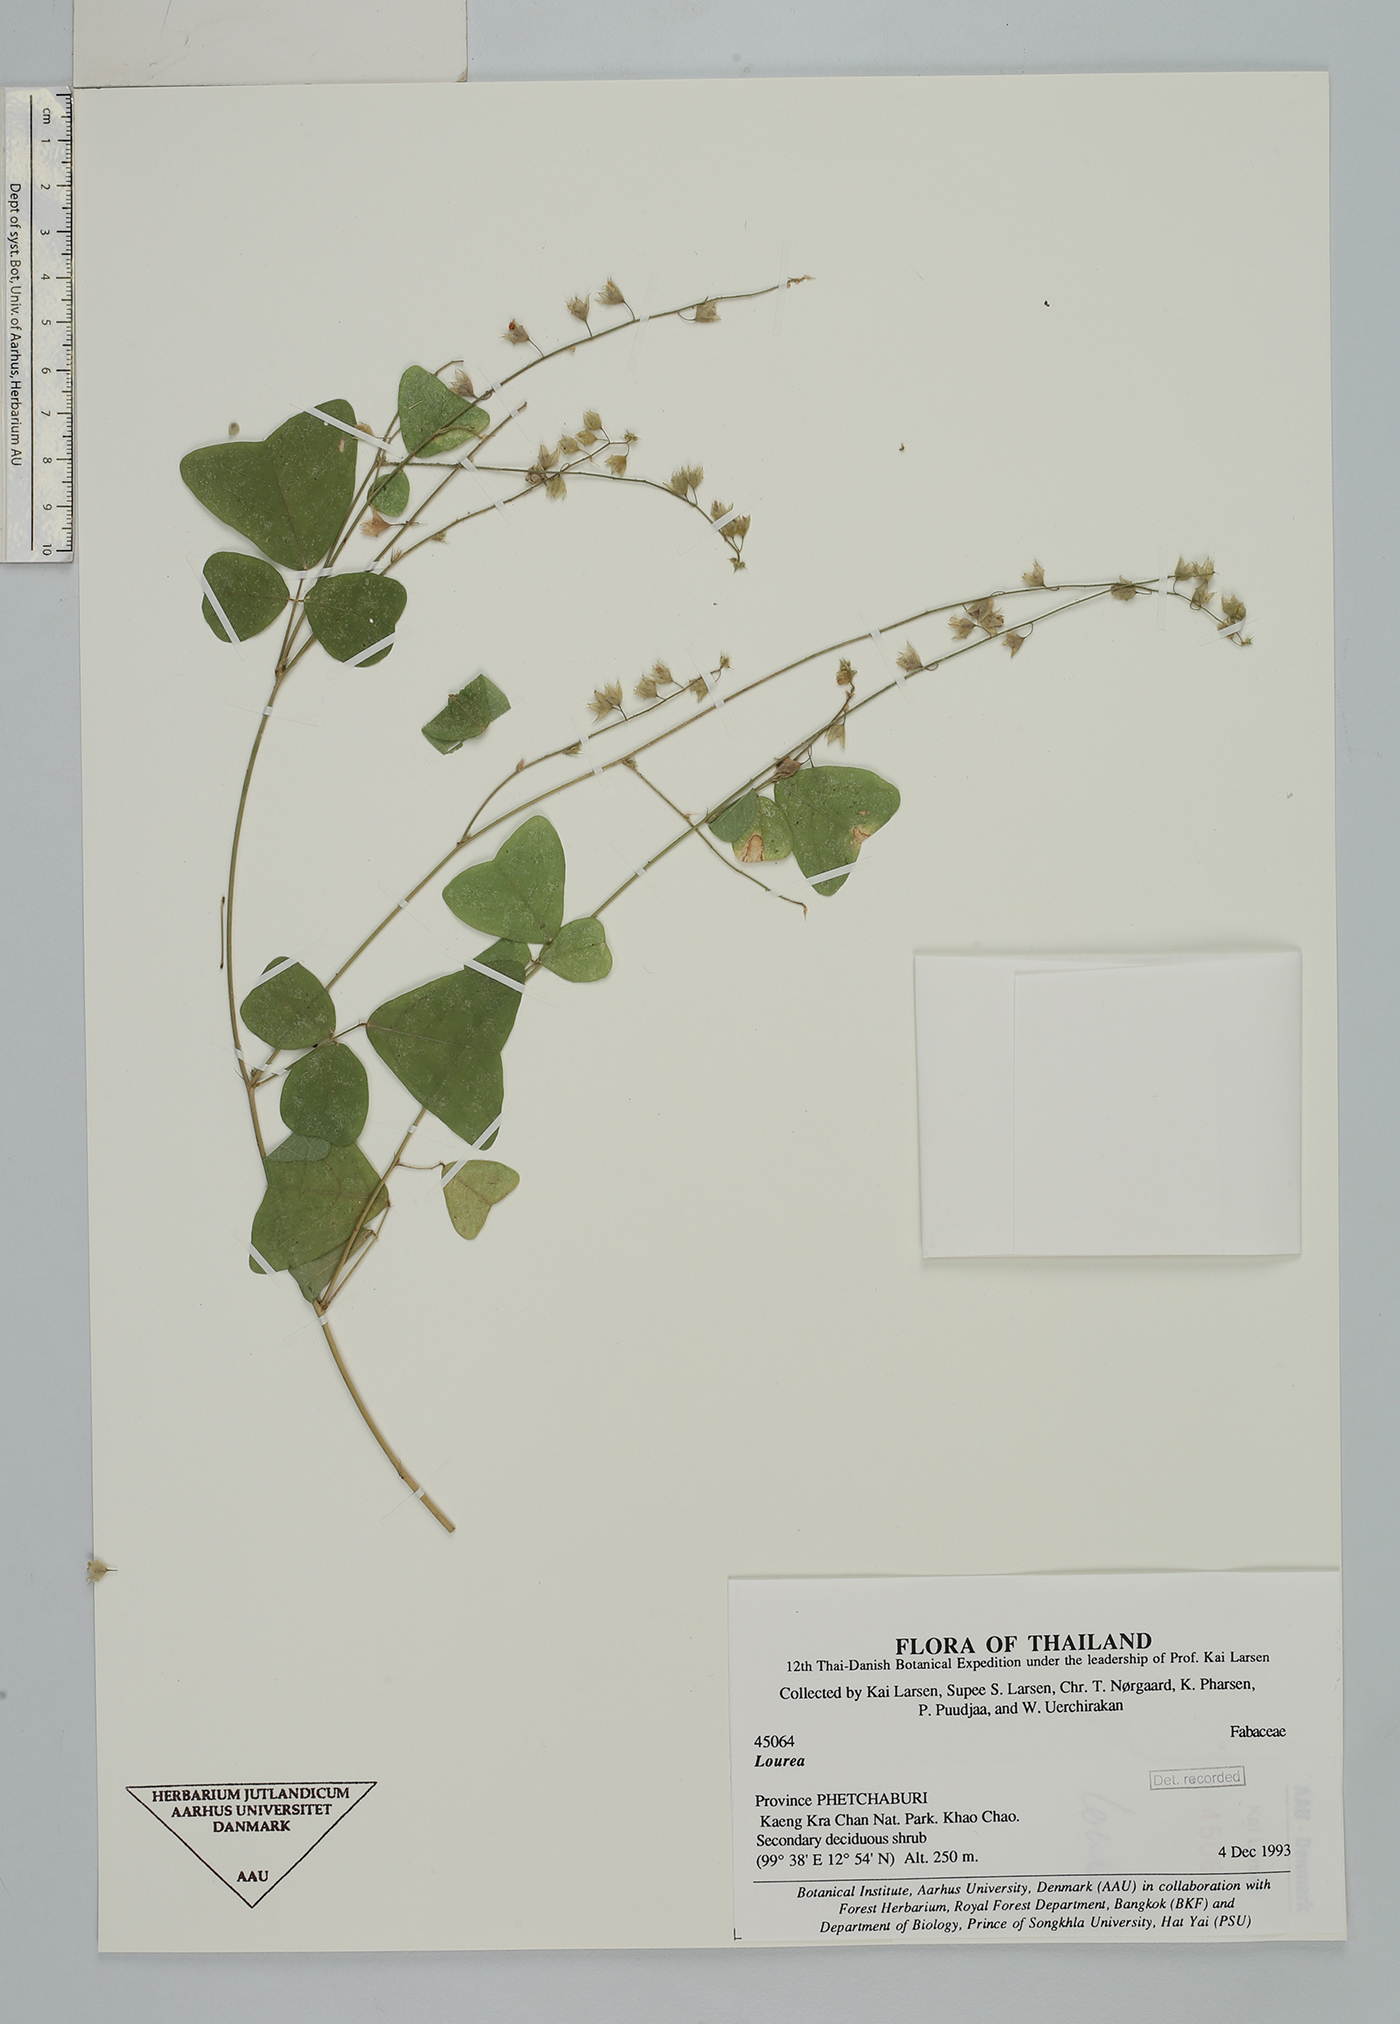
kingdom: Plantae
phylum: Tracheophyta
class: Magnoliopsida
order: Fabales
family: Fabaceae
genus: Lourea
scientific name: Lourea
